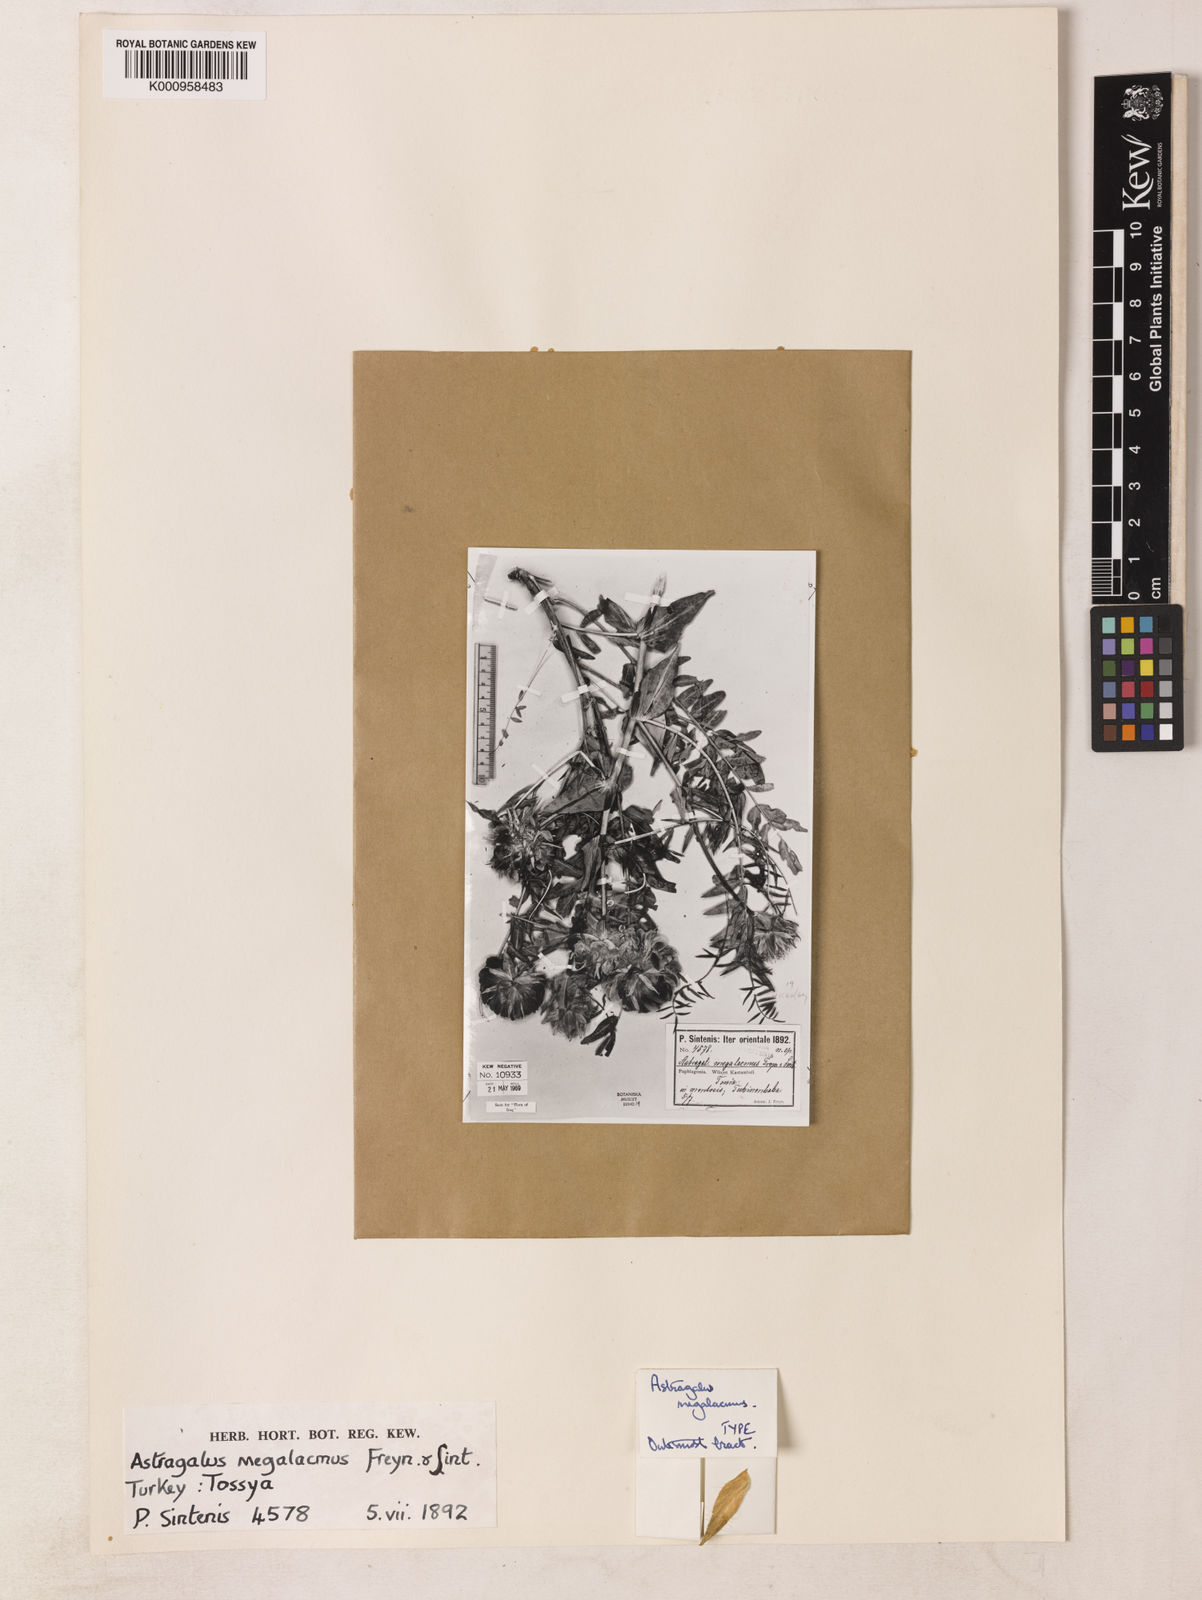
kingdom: Plantae
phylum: Tracheophyta
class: Magnoliopsida
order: Fabales
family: Fabaceae
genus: Astragalus
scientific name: Astragalus macrocephalus
